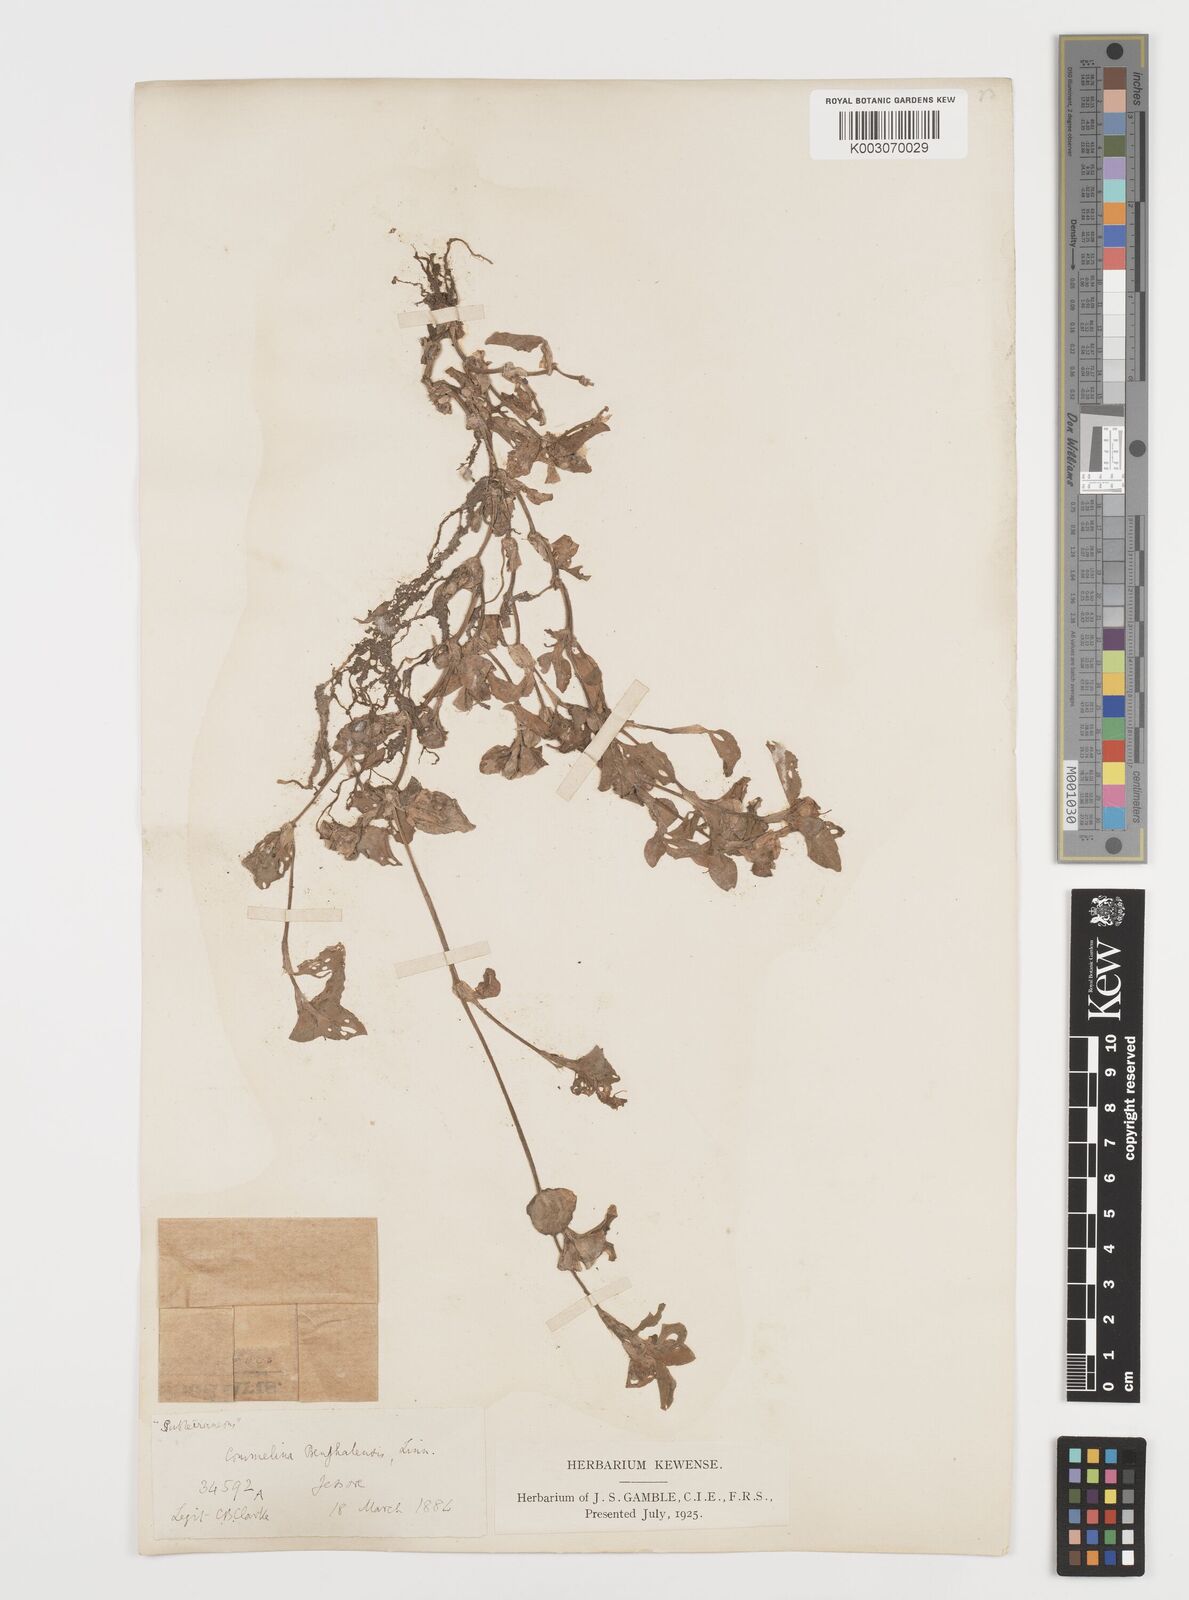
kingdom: Plantae
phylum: Tracheophyta
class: Liliopsida
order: Commelinales
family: Commelinaceae
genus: Commelina
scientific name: Commelina
